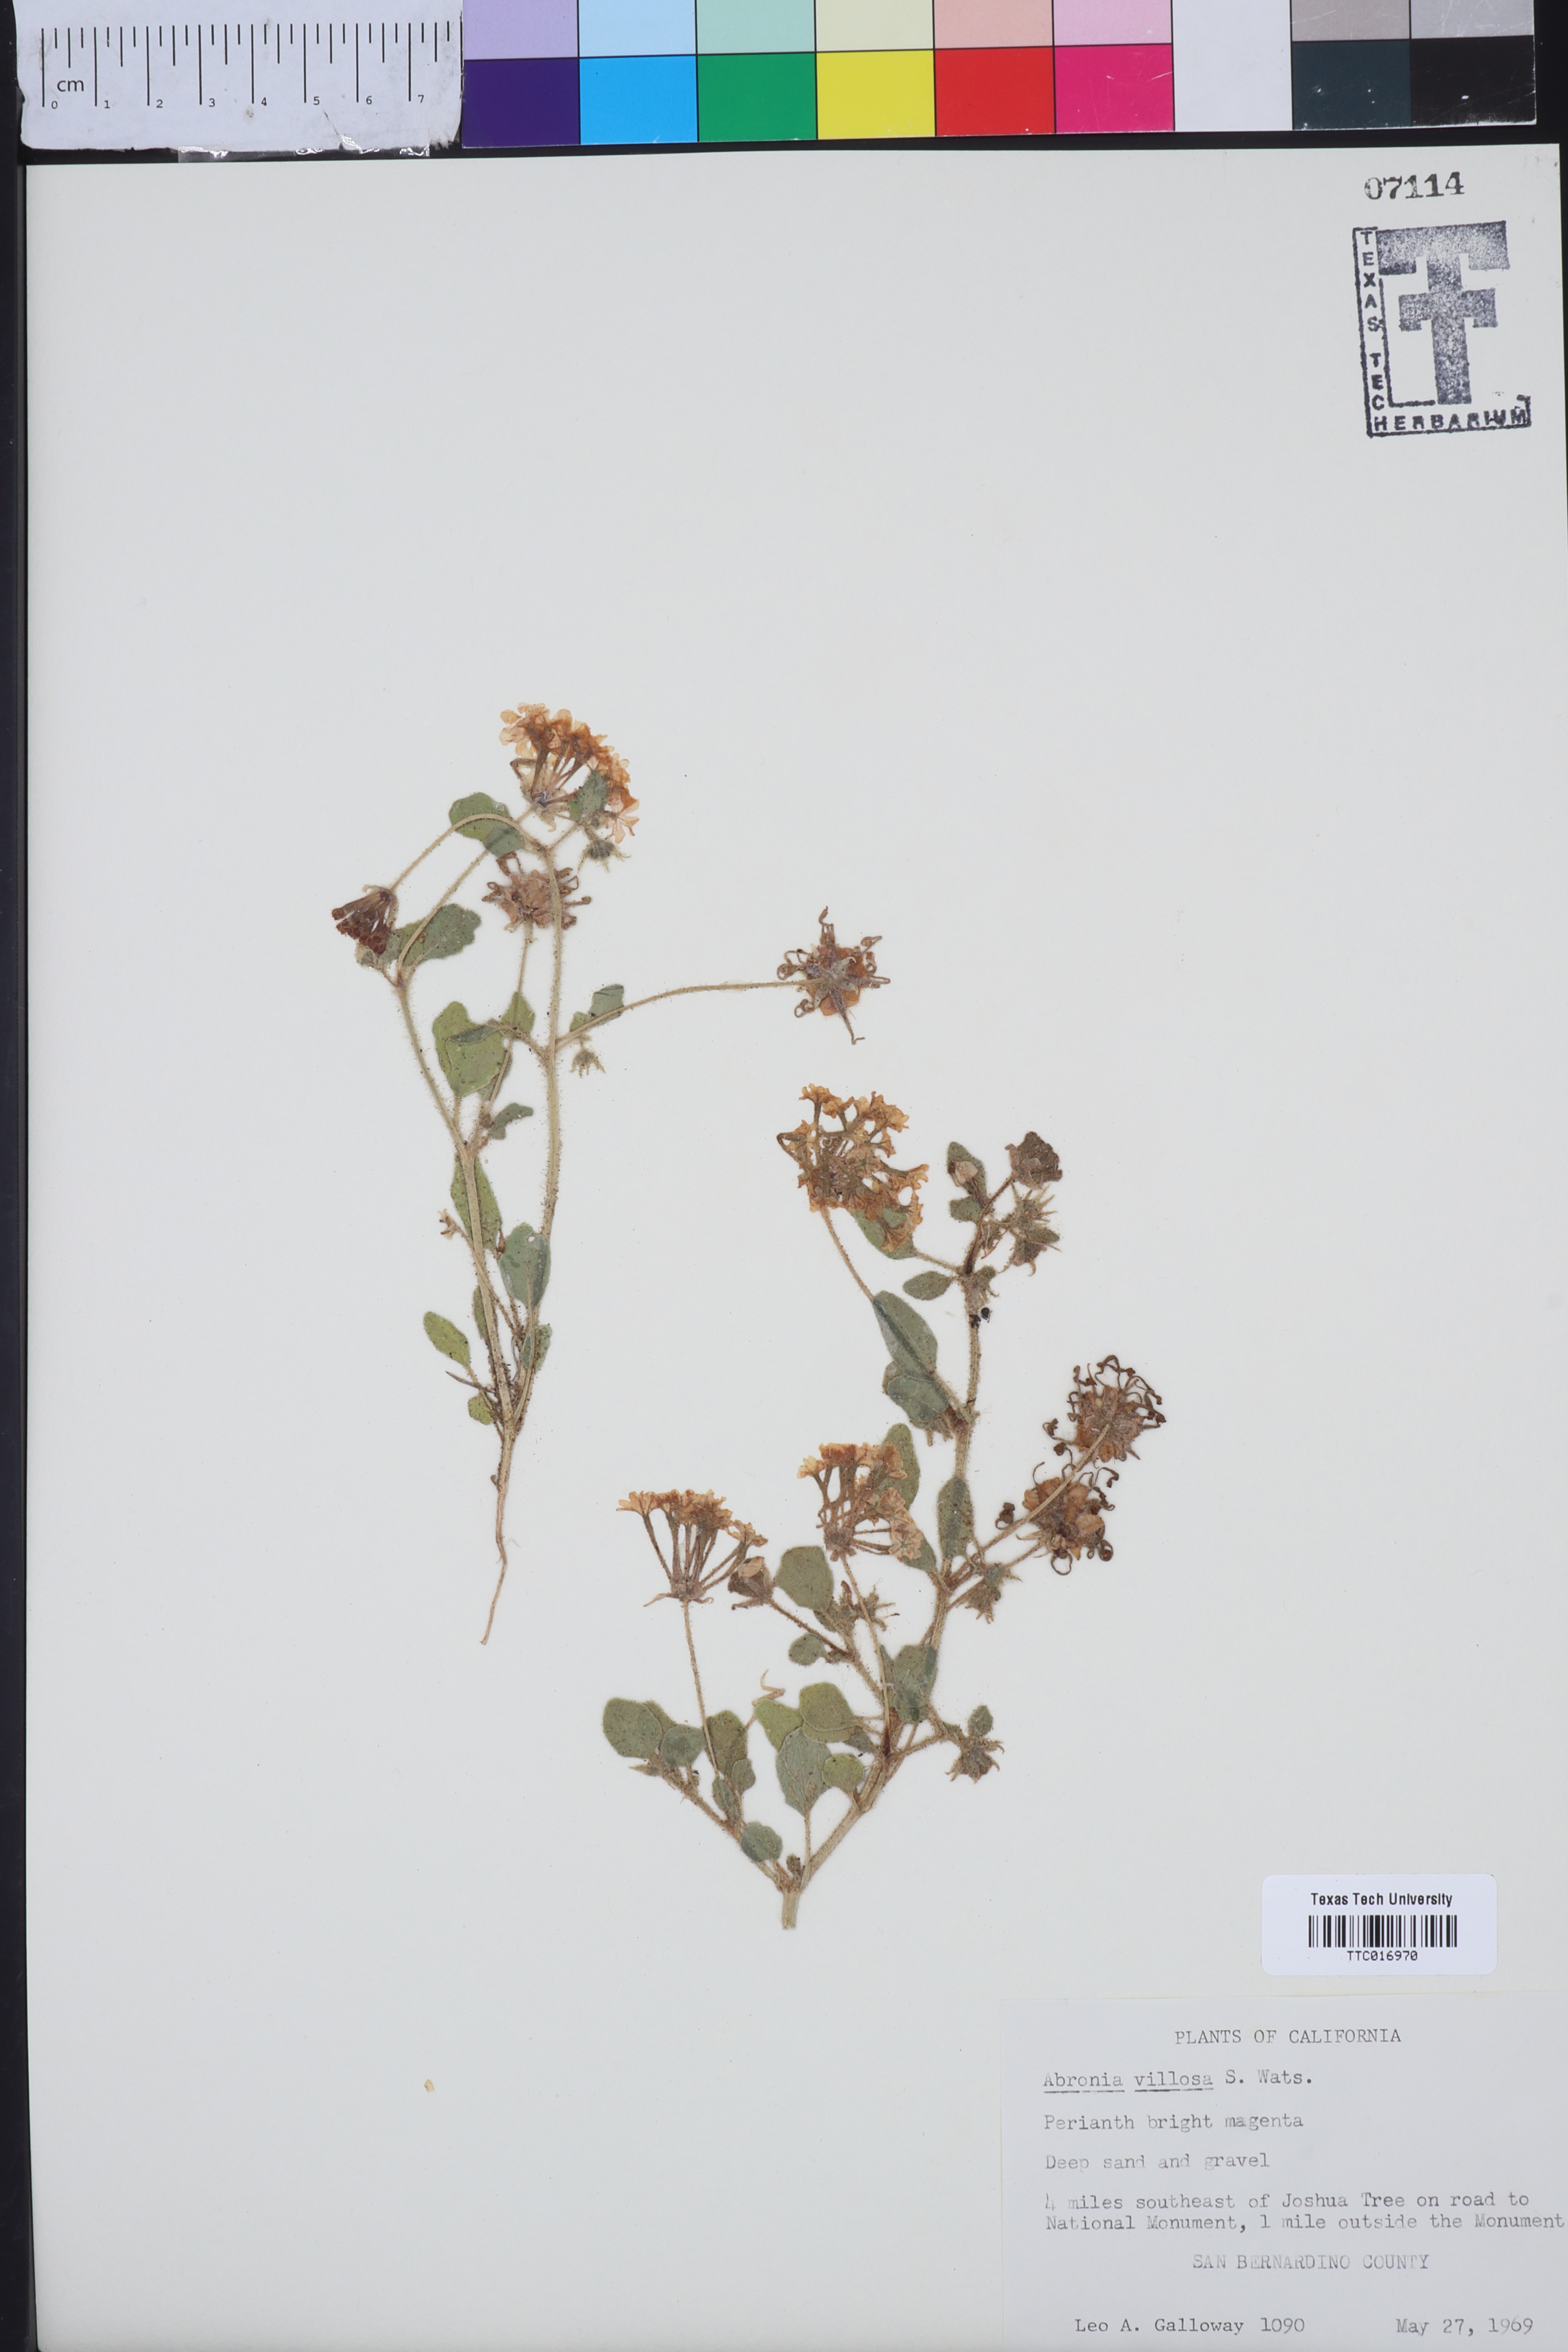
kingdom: Plantae
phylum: Tracheophyta
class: Magnoliopsida
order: Caryophyllales
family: Nyctaginaceae
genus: Abronia
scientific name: Abronia villosa
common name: Desert sand-verbena
